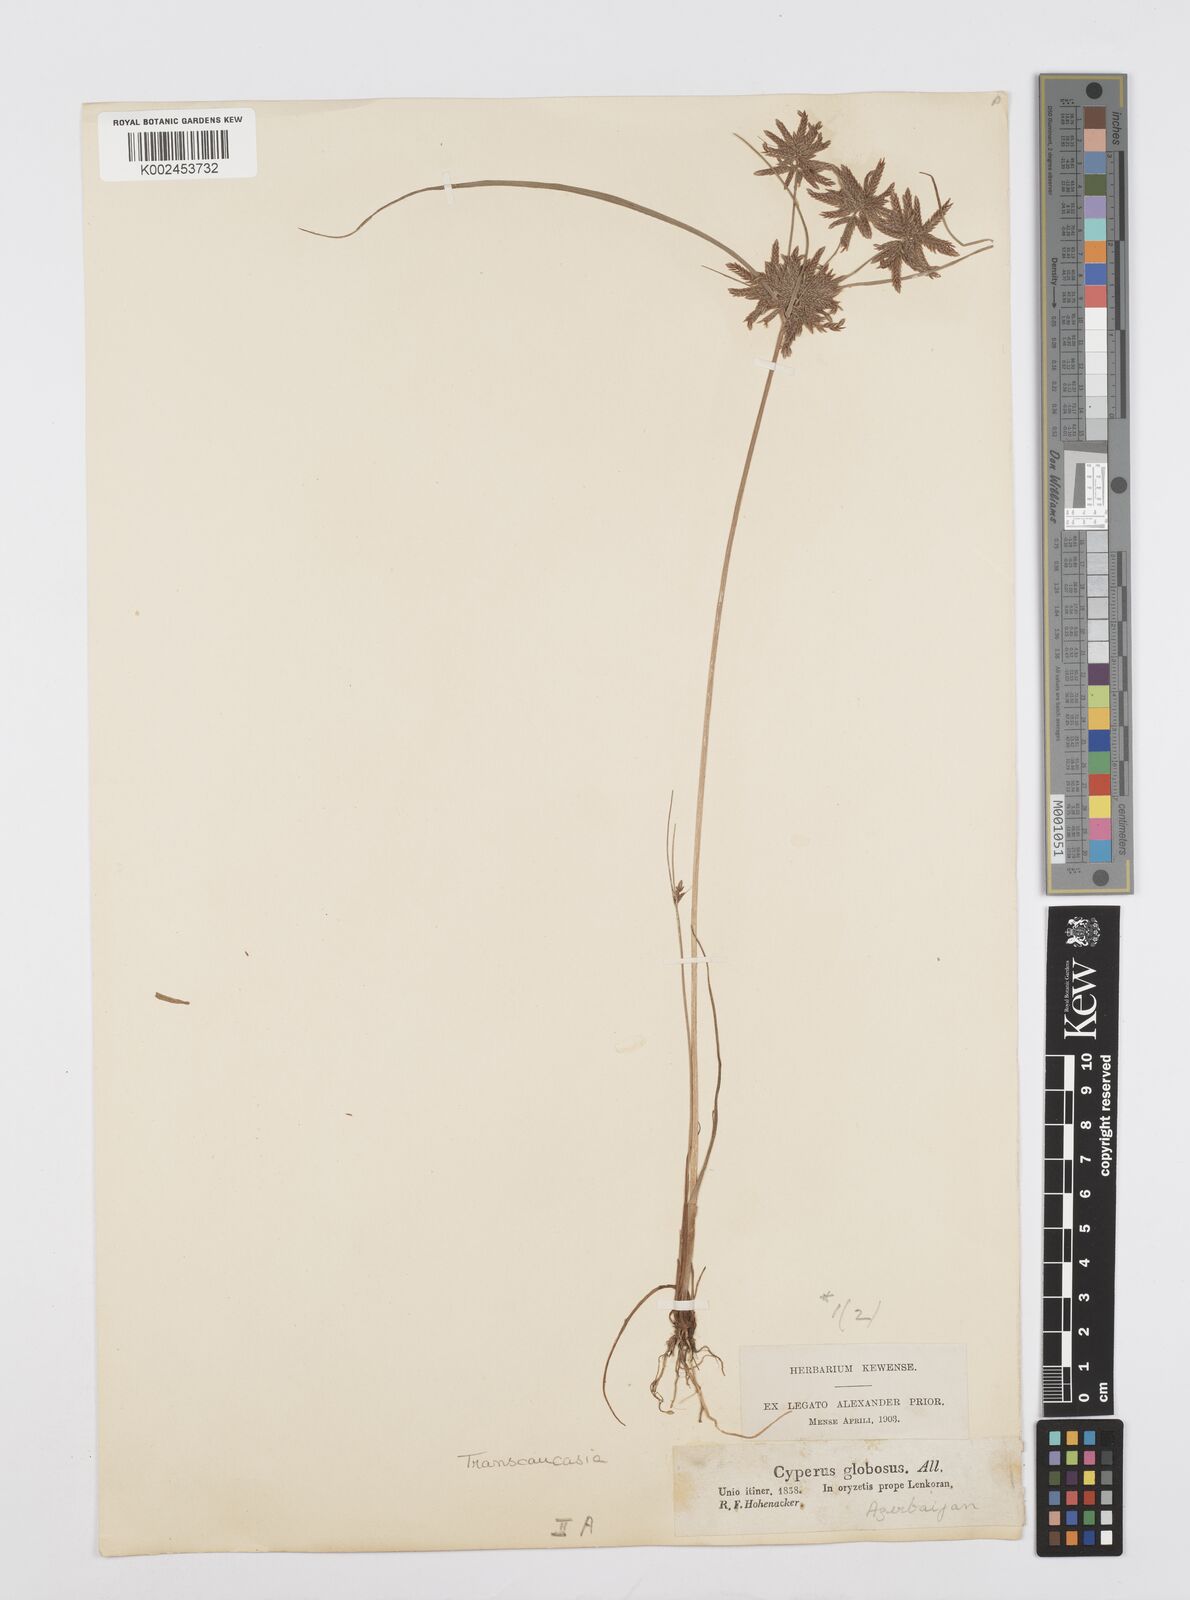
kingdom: Plantae
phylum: Tracheophyta
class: Liliopsida
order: Poales
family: Cyperaceae
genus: Cyperus
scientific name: Cyperus flavidus
